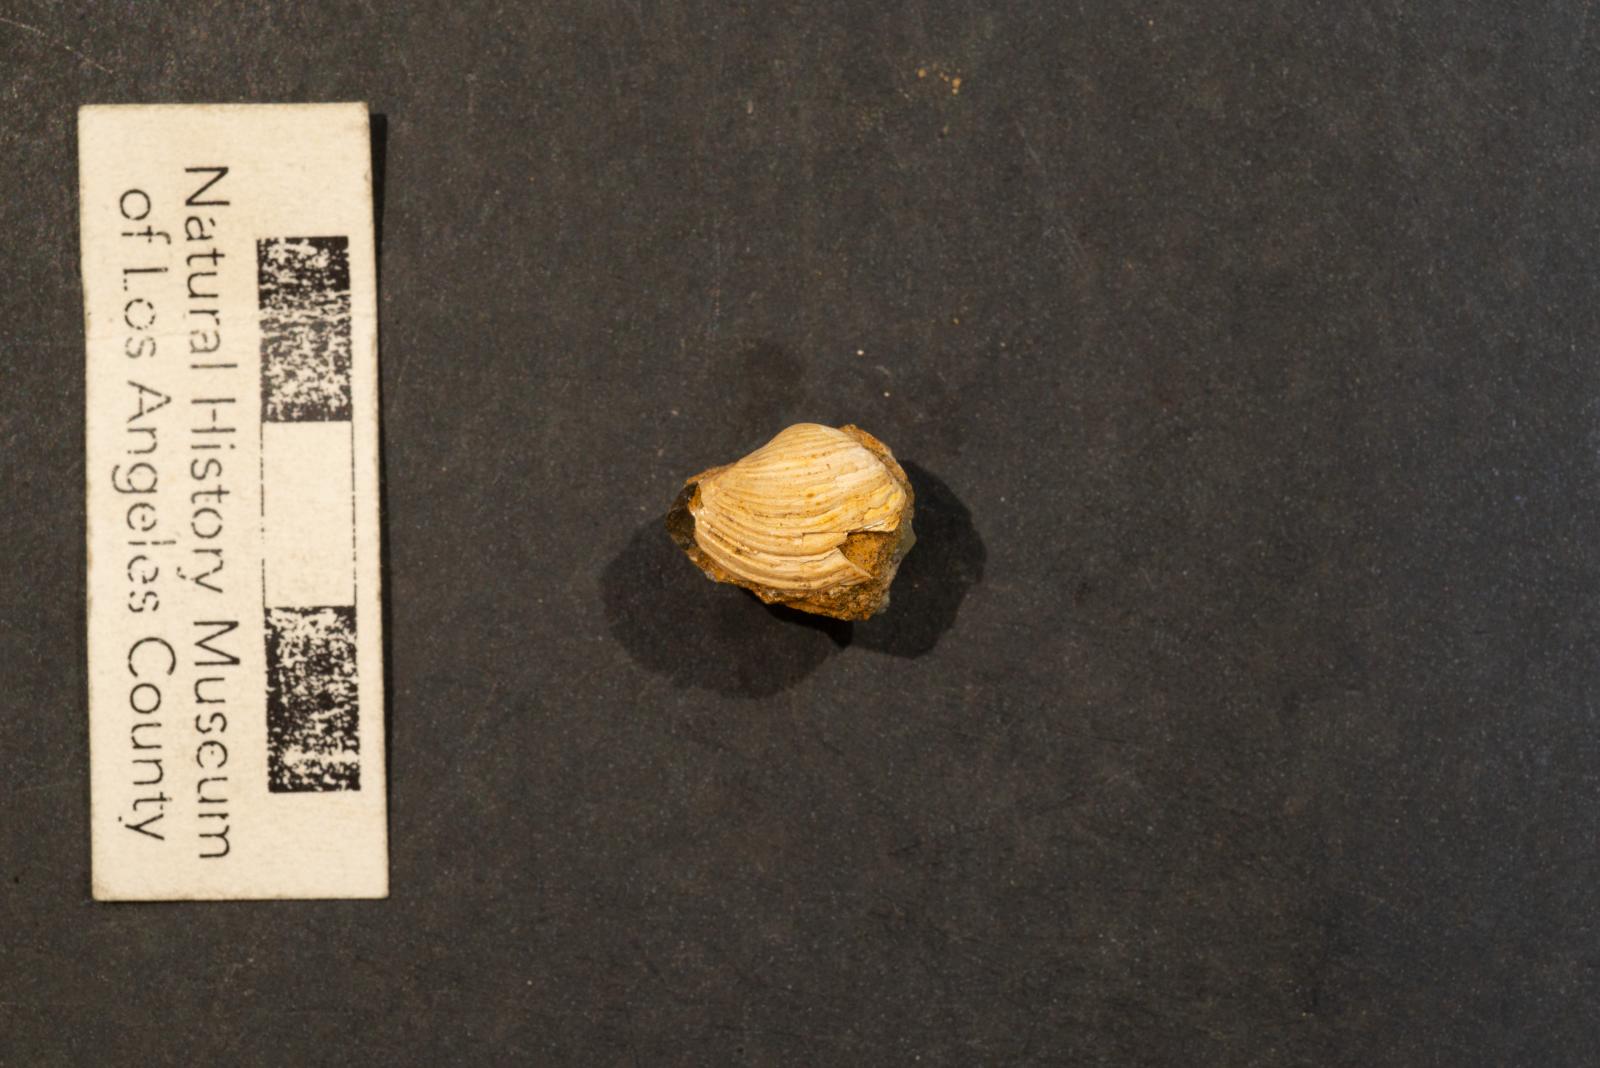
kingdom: Animalia
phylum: Mollusca
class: Bivalvia
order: Myida
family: Corbulidae
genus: Corbula
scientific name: Corbula pozo
